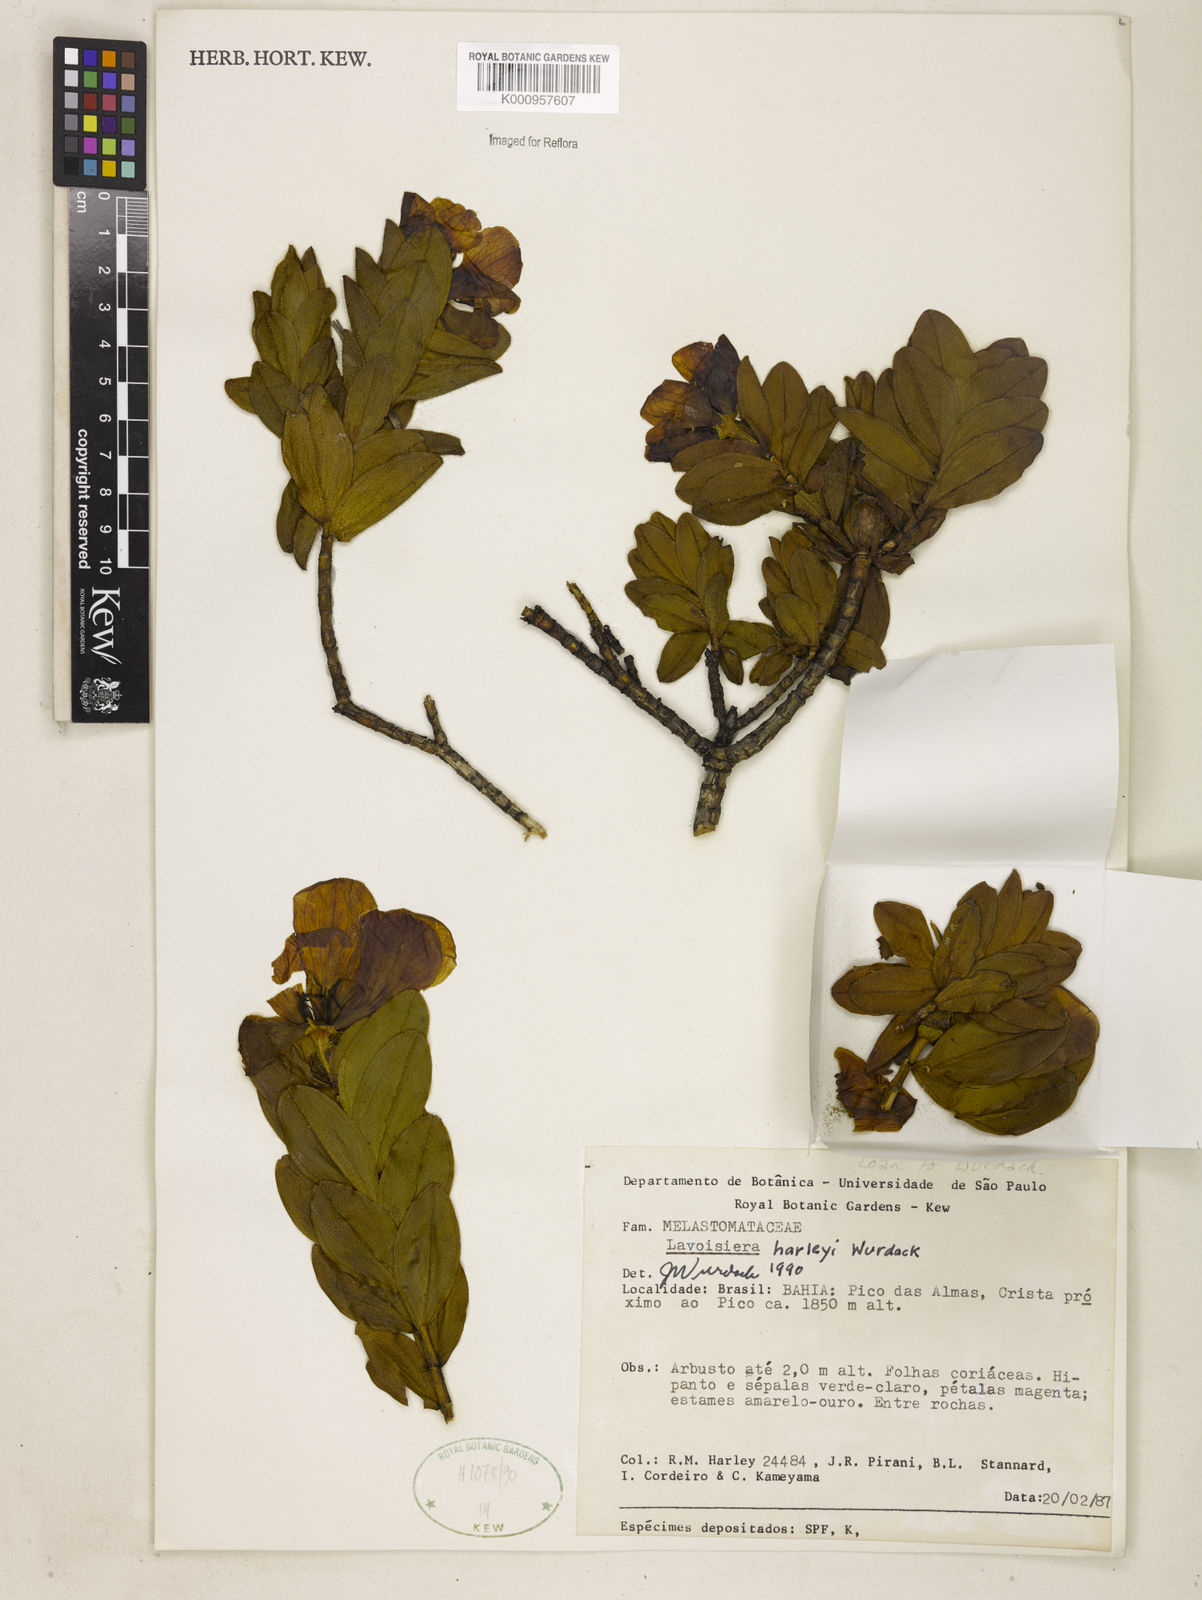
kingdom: Plantae
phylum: Tracheophyta
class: Magnoliopsida
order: Myrtales
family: Melastomataceae
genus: Microlicia
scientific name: Microlicia raymondii
